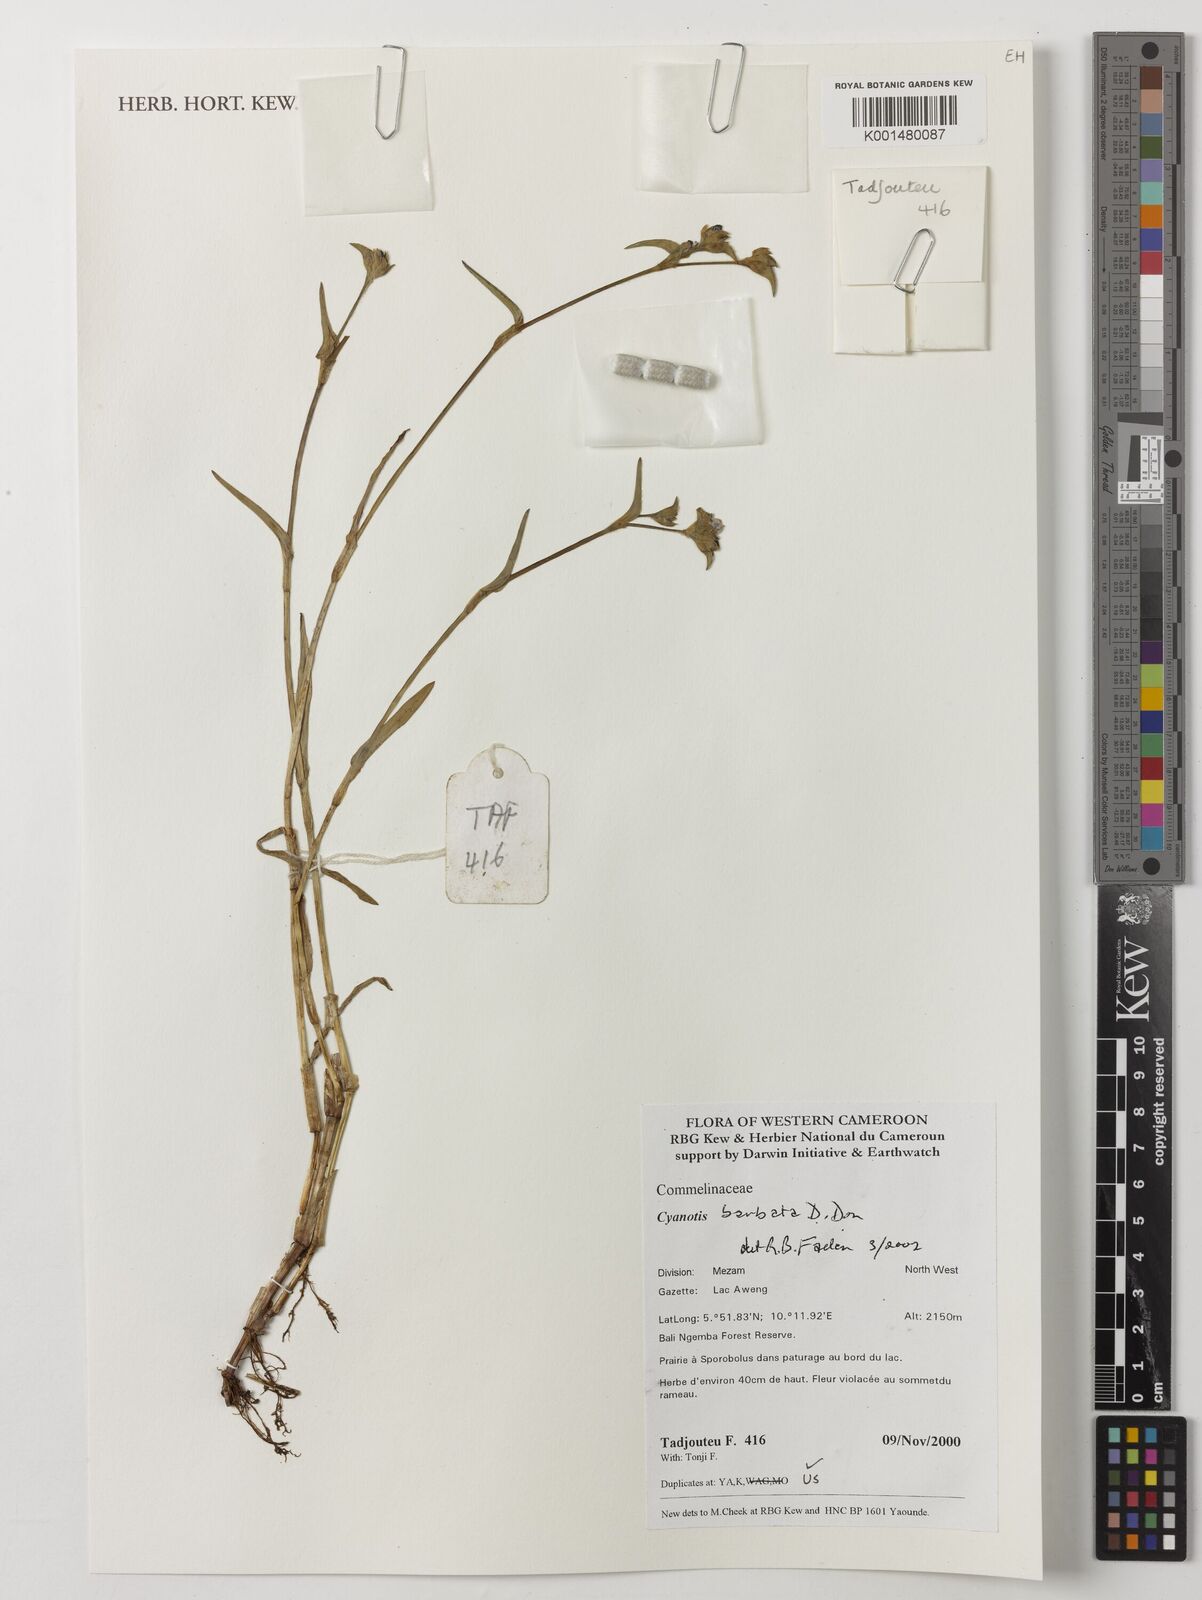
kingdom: Plantae
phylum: Tracheophyta
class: Liliopsida
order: Commelinales
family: Commelinaceae
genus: Cyanotis
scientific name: Cyanotis vaga
